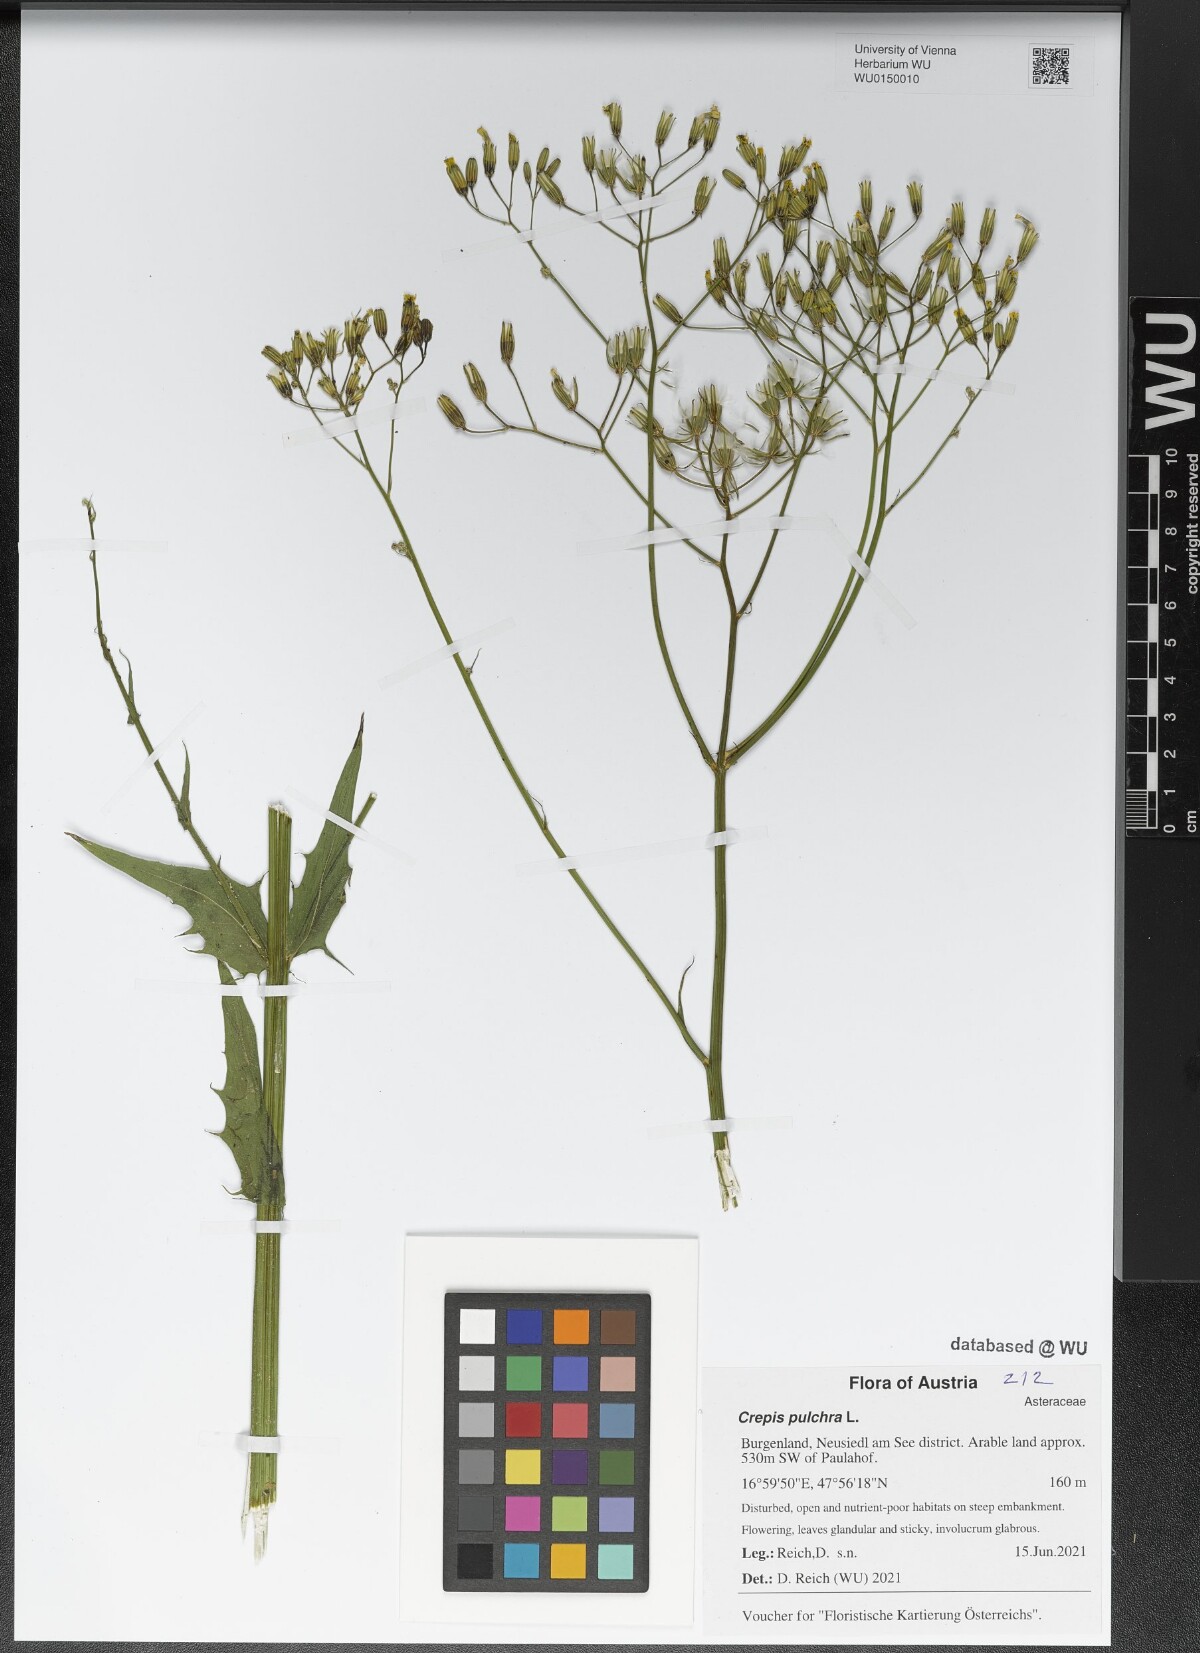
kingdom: Plantae
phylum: Tracheophyta
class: Magnoliopsida
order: Asterales
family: Asteraceae
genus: Crepis
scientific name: Crepis pulchra
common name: Hawk's-beard
